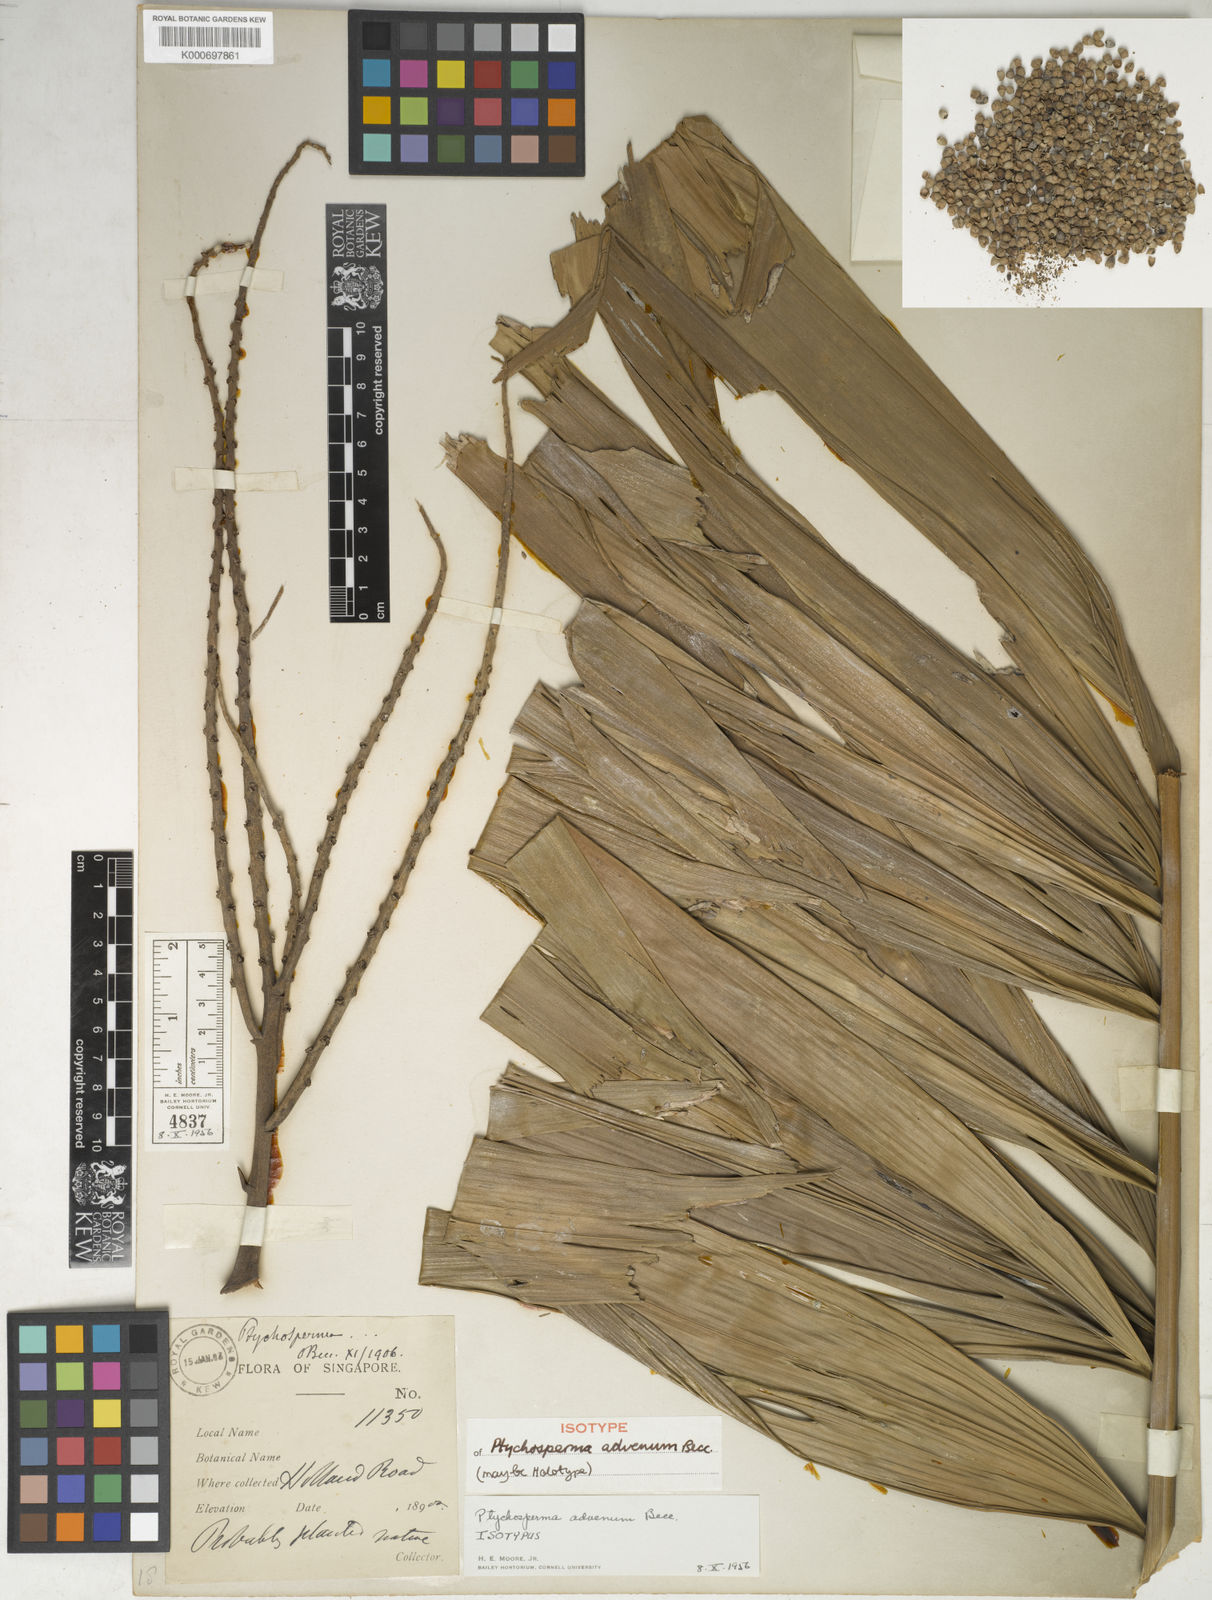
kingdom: Plantae
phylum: Tracheophyta
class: Liliopsida
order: Arecales
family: Arecaceae
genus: Ptychosperma
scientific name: Ptychosperma advenum
